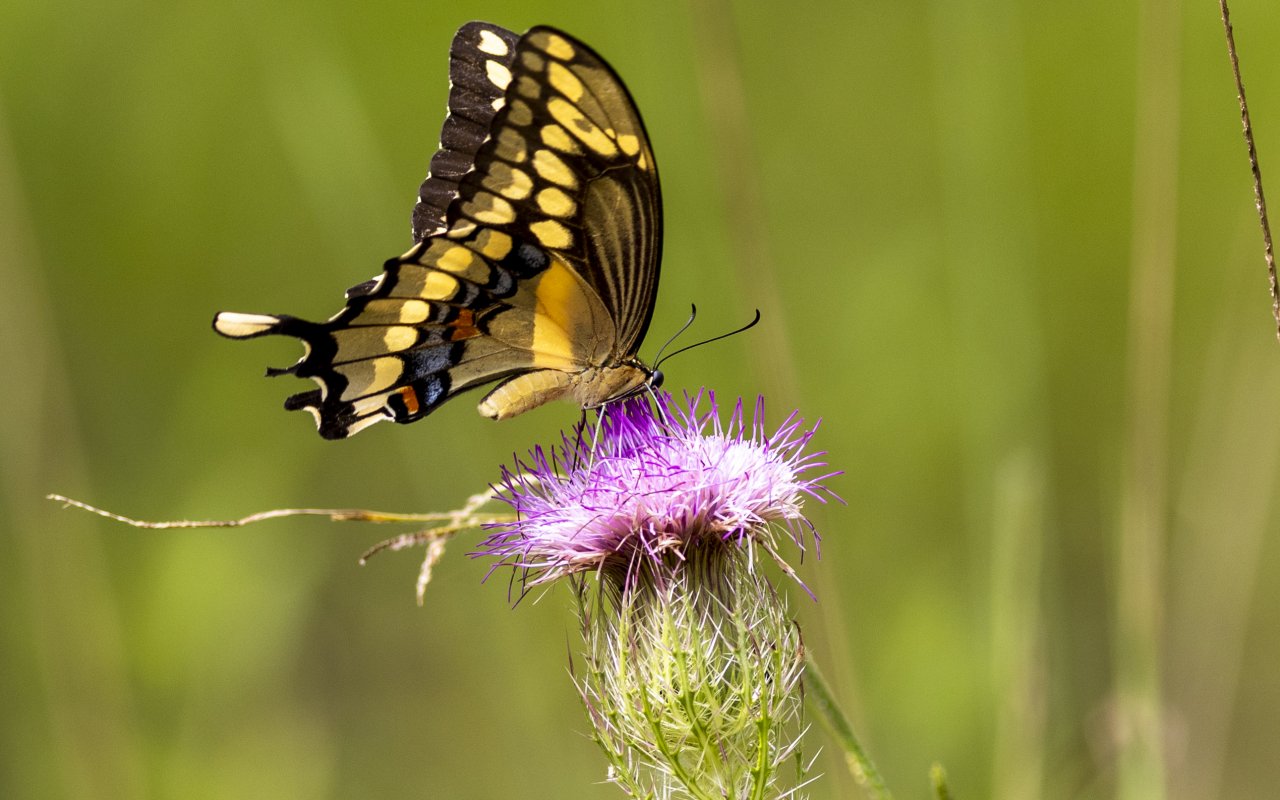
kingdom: Animalia
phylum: Arthropoda
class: Insecta
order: Lepidoptera
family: Papilionidae
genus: Papilio
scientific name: Papilio cresphontes
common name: Eastern Giant Swallowtail
